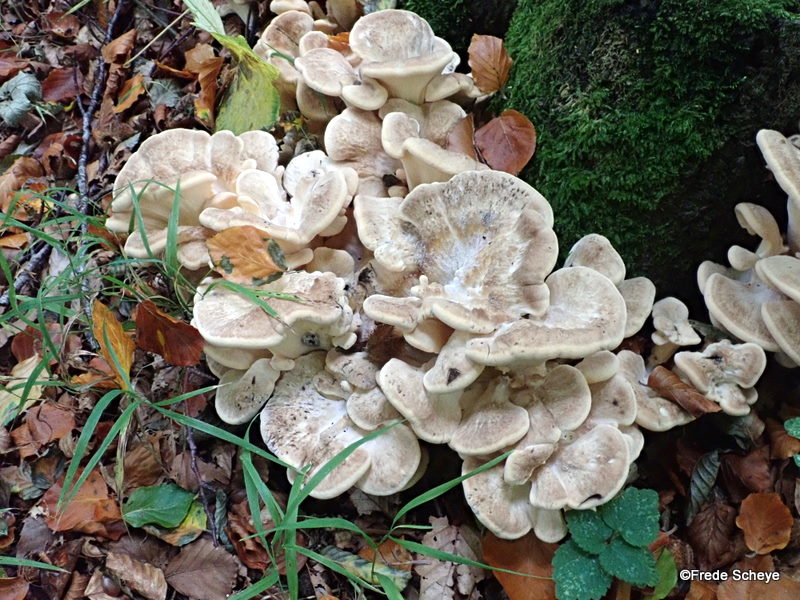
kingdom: Fungi
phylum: Basidiomycota
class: Agaricomycetes
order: Polyporales
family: Meripilaceae
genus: Meripilus
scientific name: Meripilus giganteus
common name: kæmpeporesvamp
